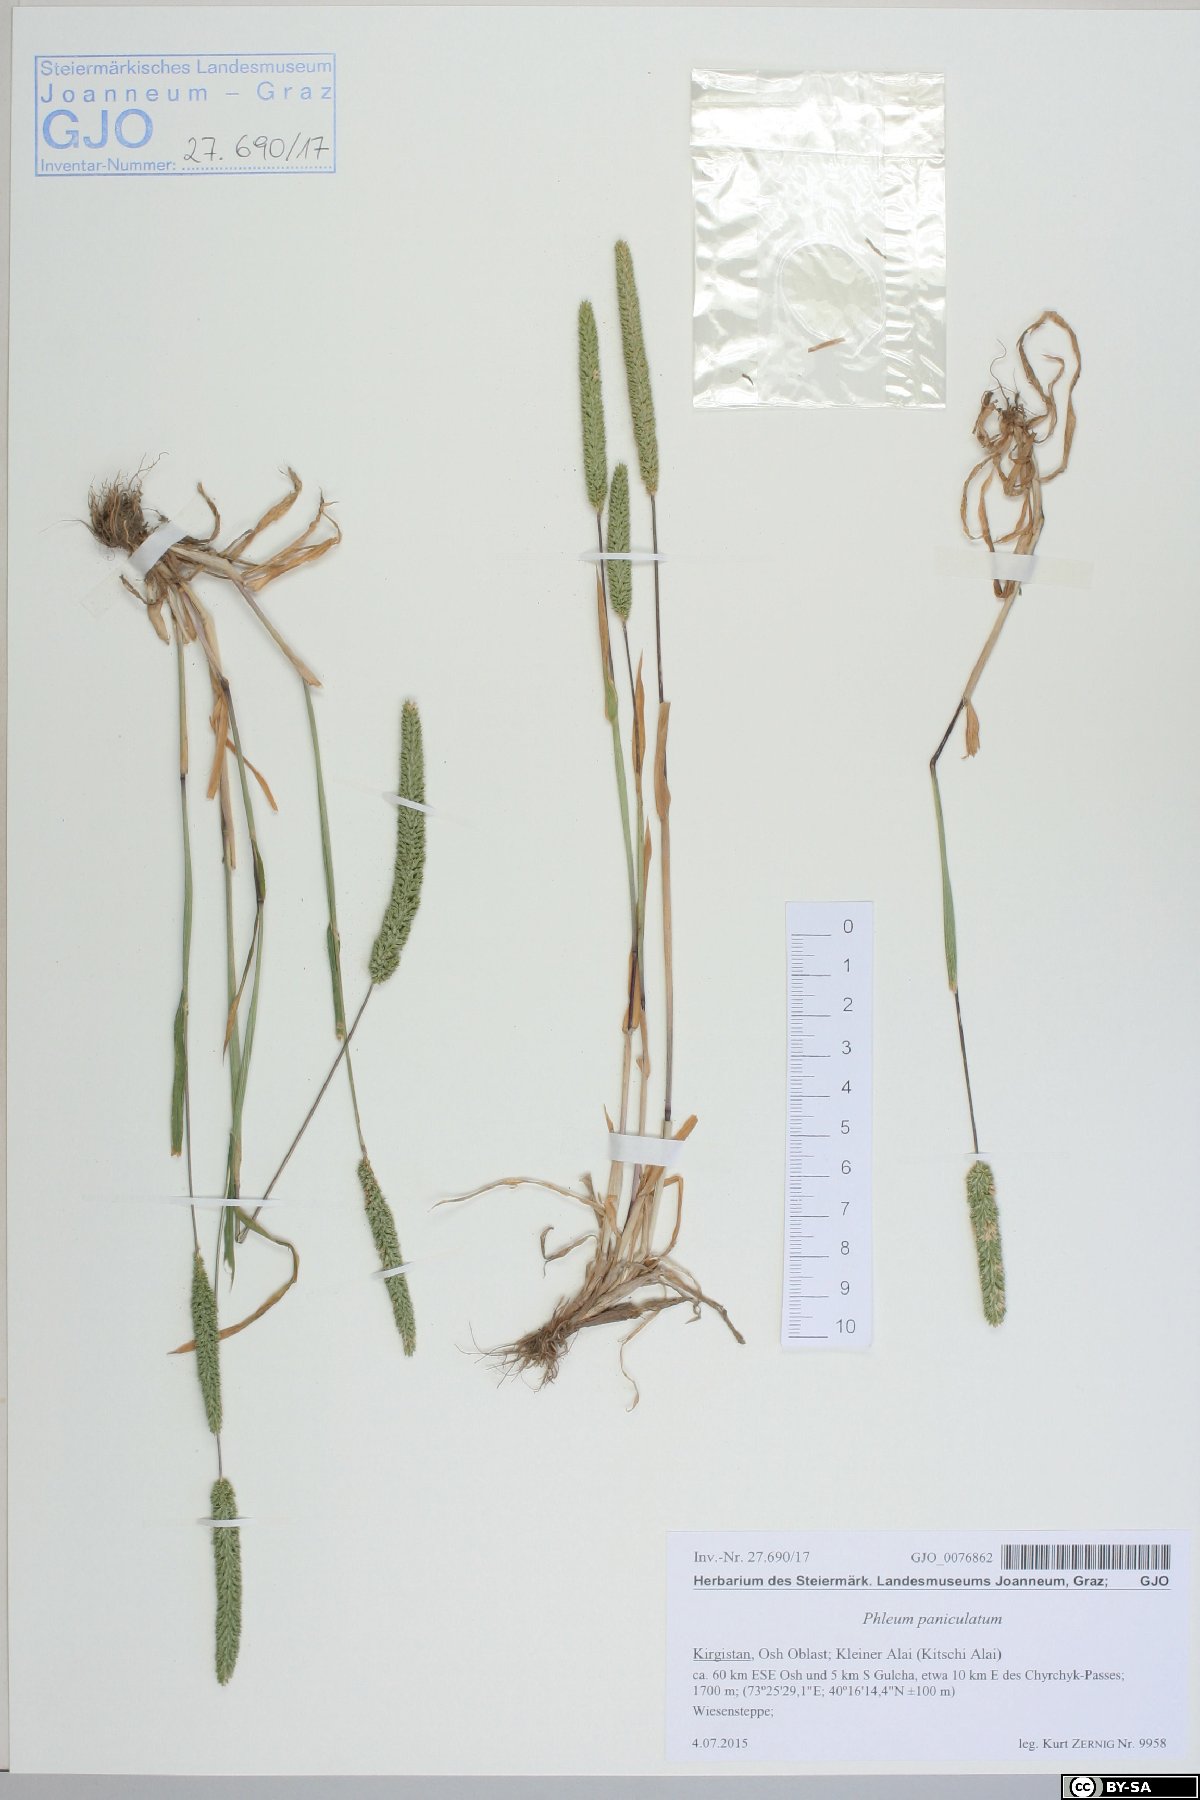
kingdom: Plantae
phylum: Tracheophyta
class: Liliopsida
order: Poales
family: Poaceae
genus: Phleum
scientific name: Phleum paniculatum
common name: British timothy
